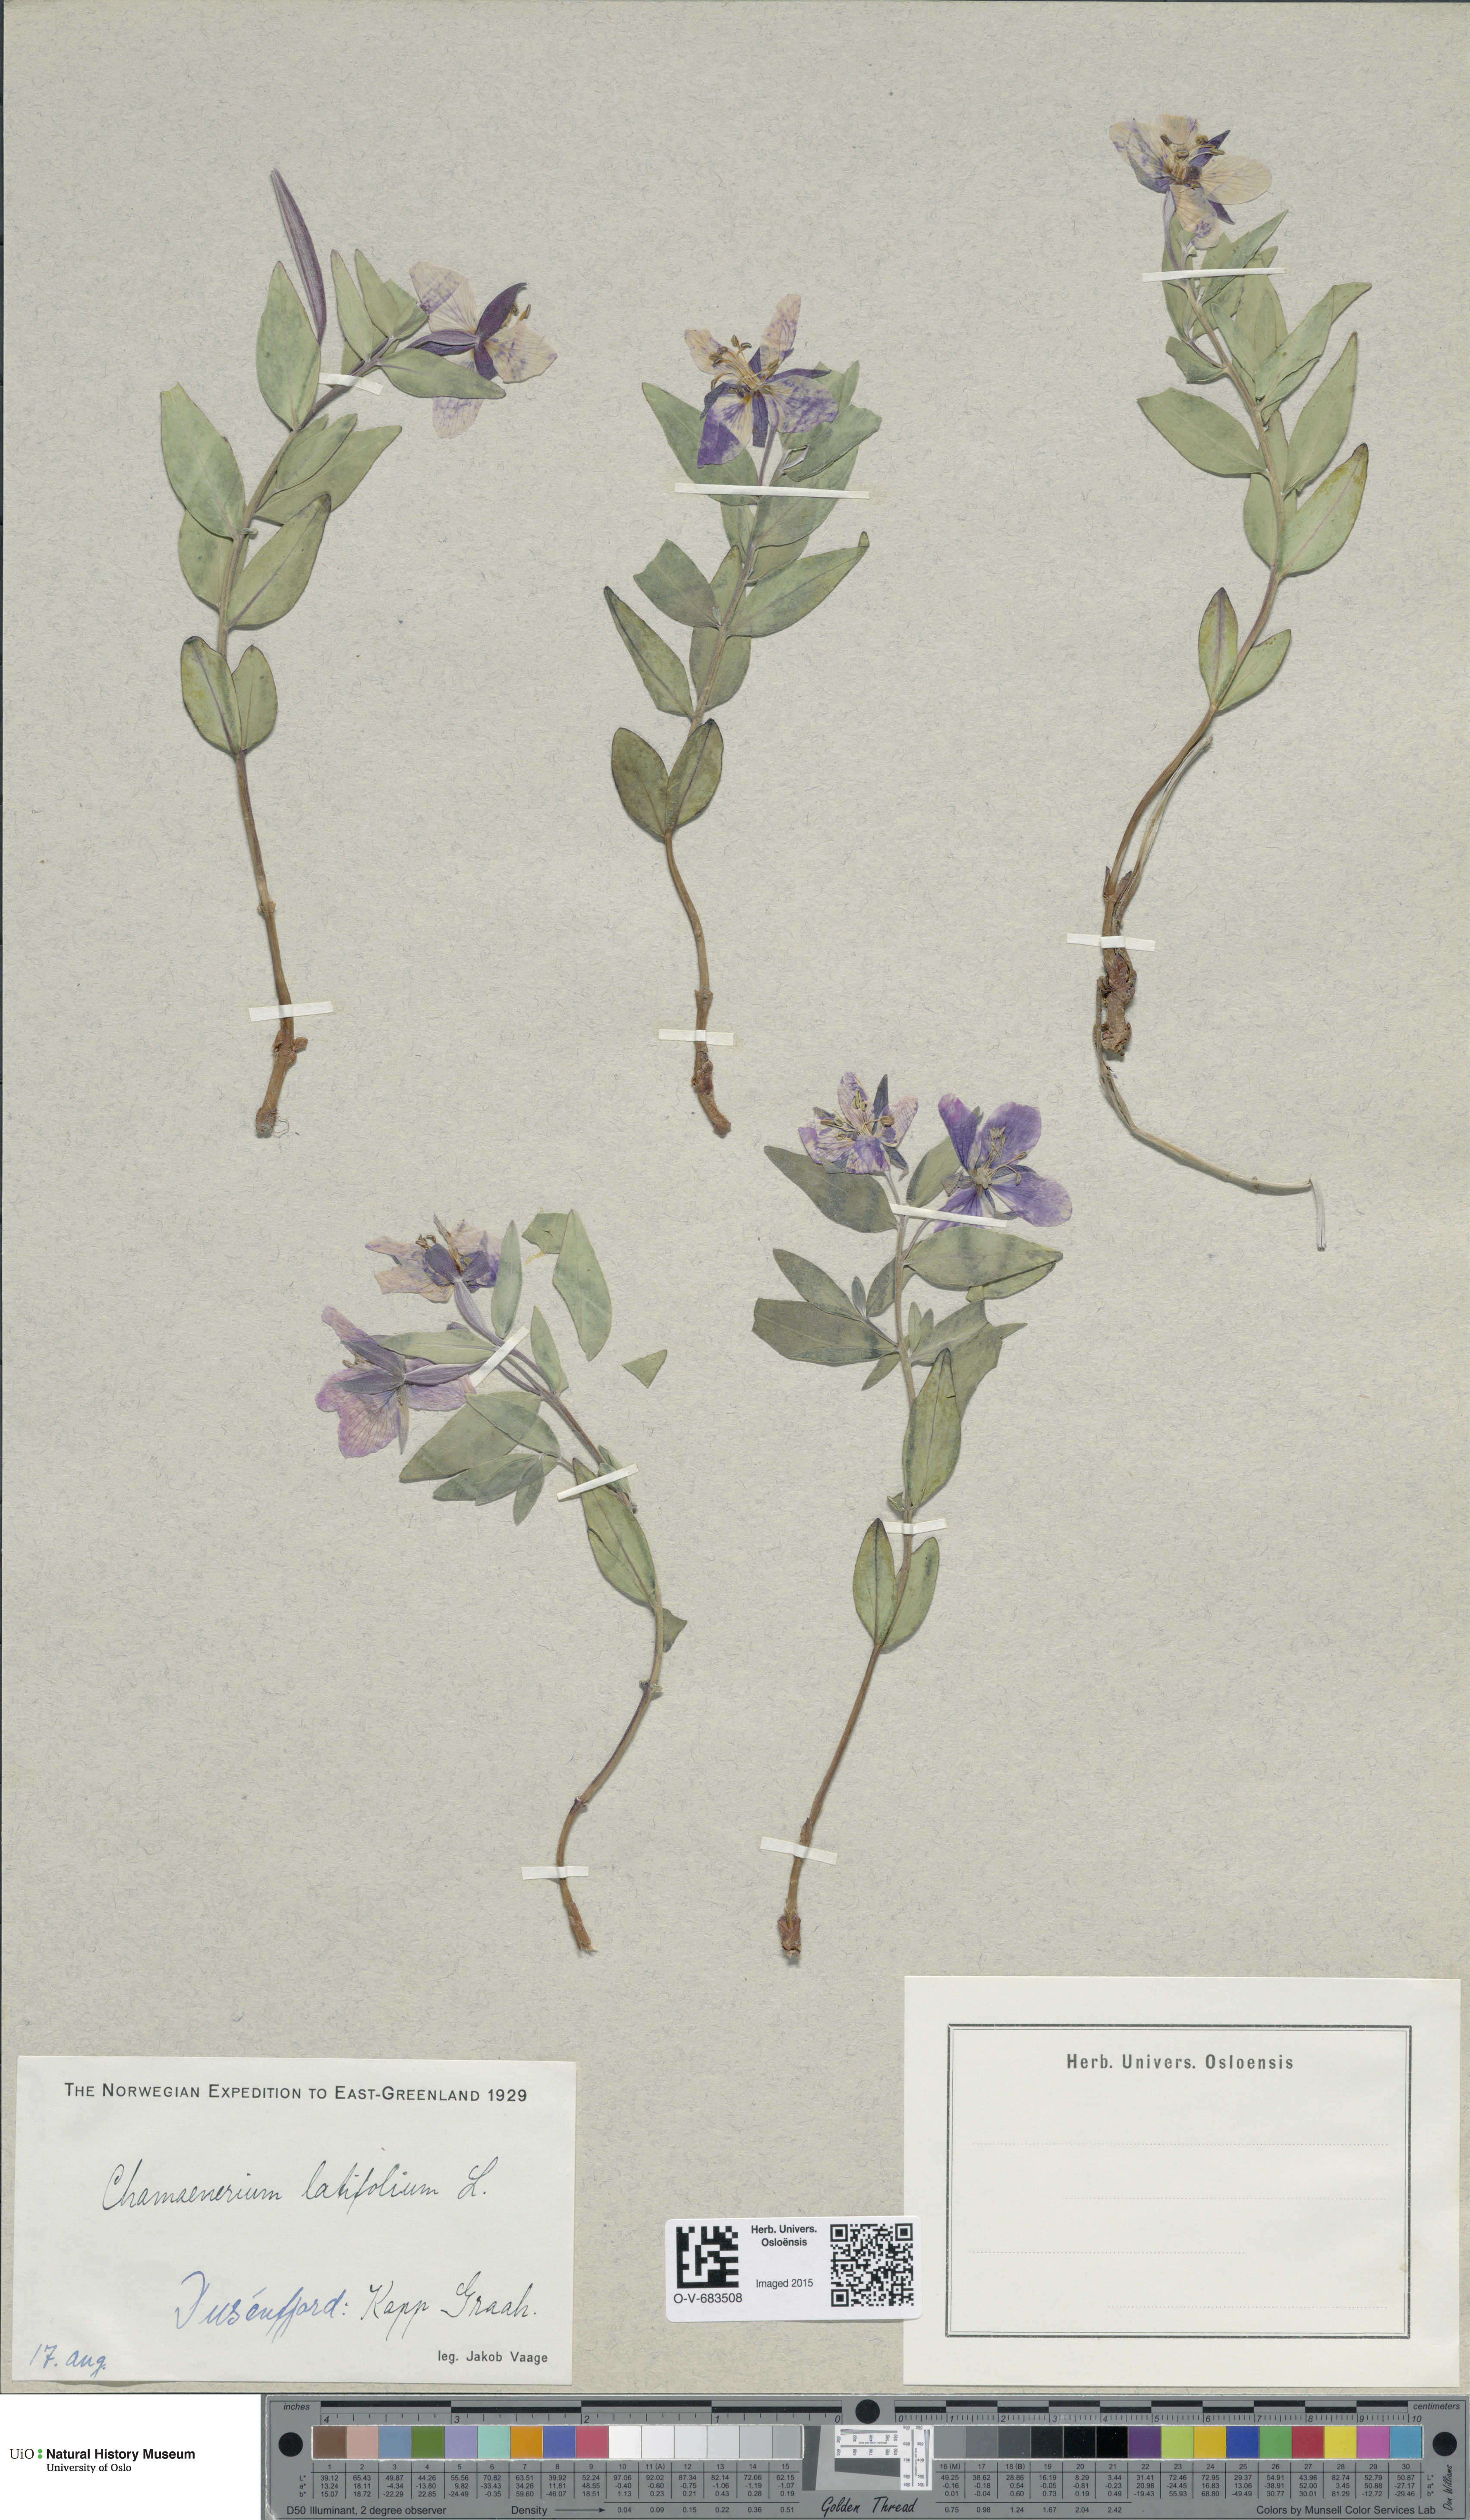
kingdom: Plantae
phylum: Tracheophyta
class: Magnoliopsida
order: Myrtales
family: Onagraceae
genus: Chamaenerion
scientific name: Chamaenerion latifolium
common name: Dwarf fireweed
